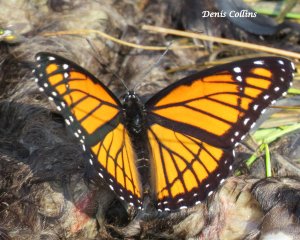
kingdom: Animalia
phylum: Arthropoda
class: Insecta
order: Lepidoptera
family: Nymphalidae
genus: Limenitis
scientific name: Limenitis archippus
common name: Viceroy
